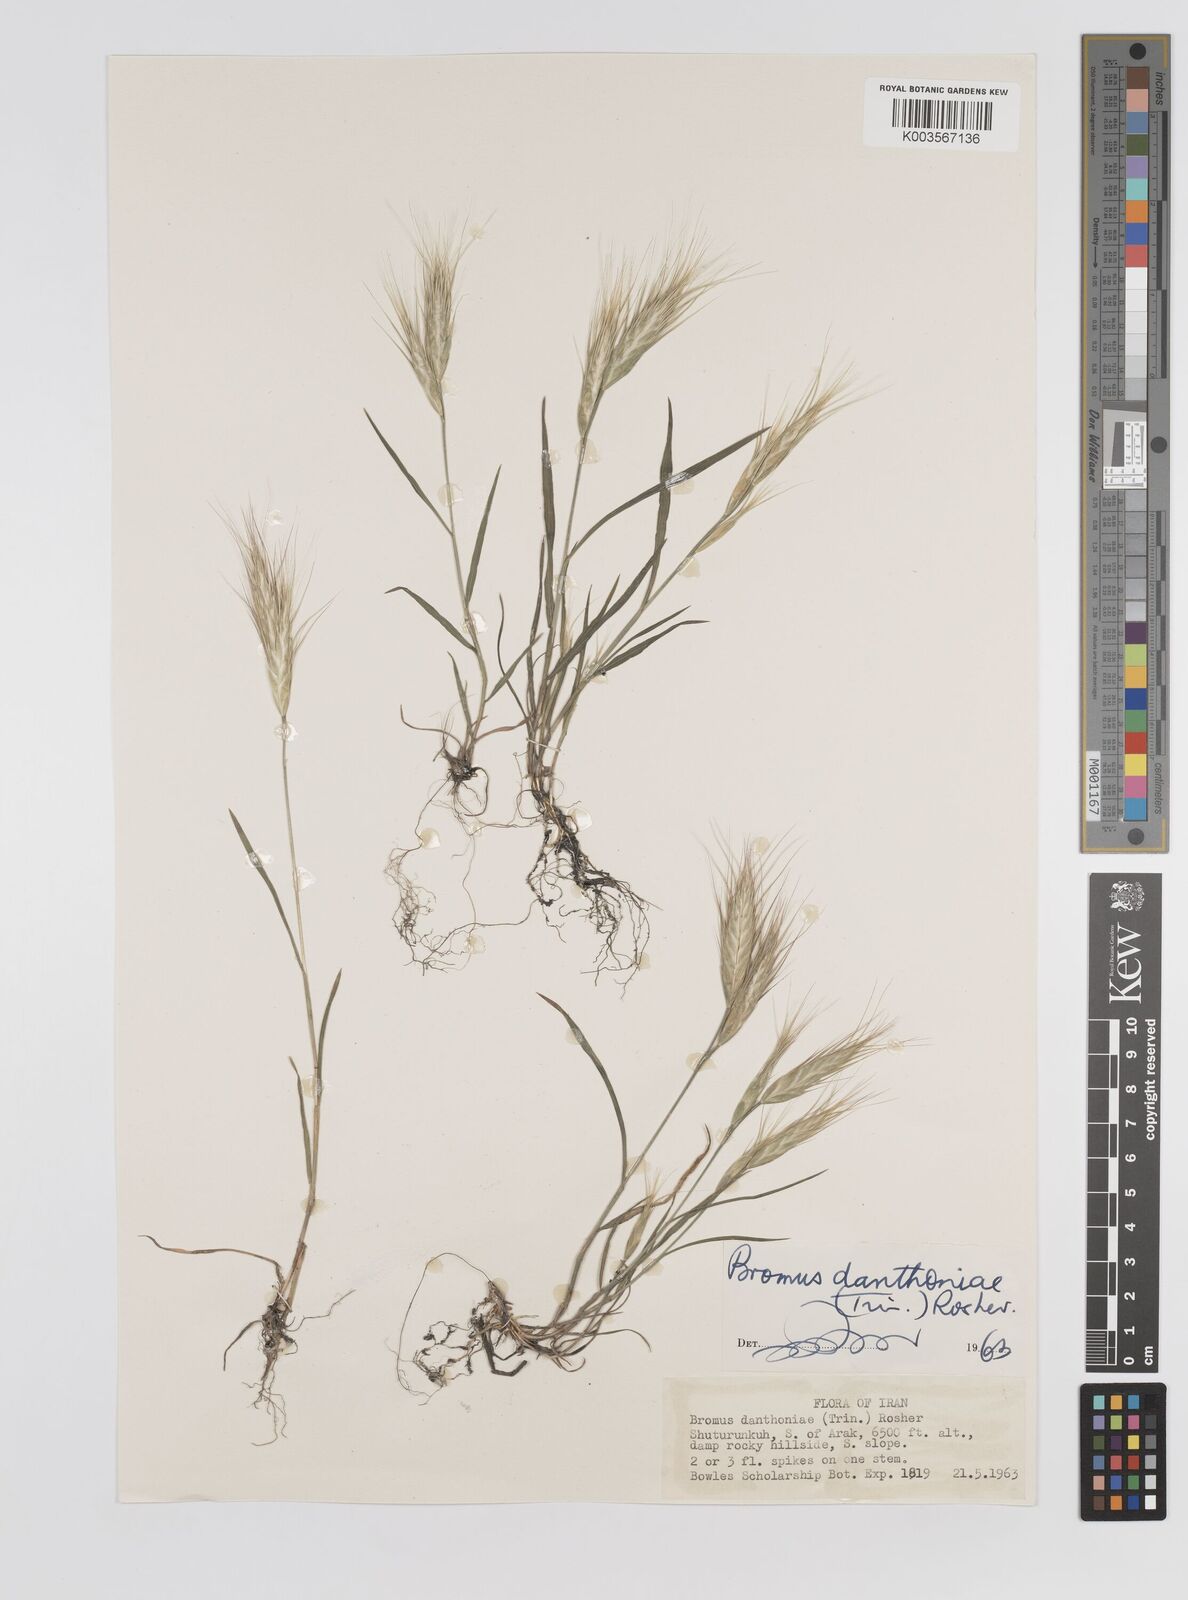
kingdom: Plantae
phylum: Tracheophyta
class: Liliopsida
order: Poales
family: Poaceae
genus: Bromus
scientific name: Bromus danthoniae
